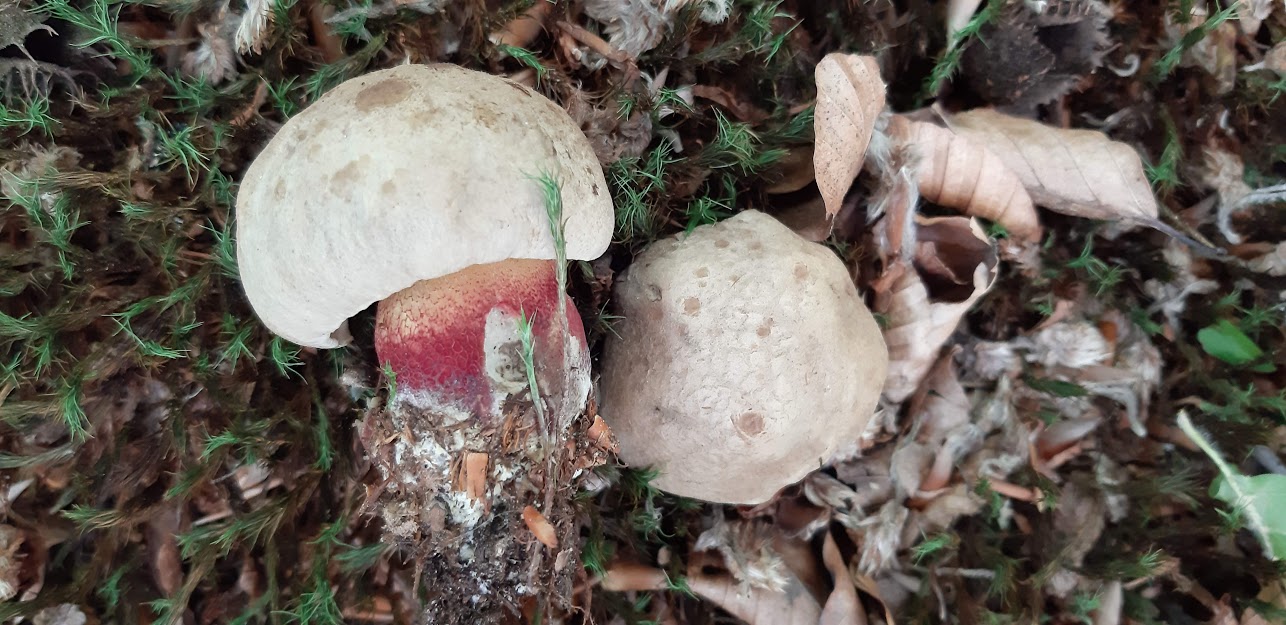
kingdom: Fungi
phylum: Basidiomycota
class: Agaricomycetes
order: Boletales
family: Boletaceae
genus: Caloboletus
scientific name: Caloboletus calopus
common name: skønfodet rørhat
